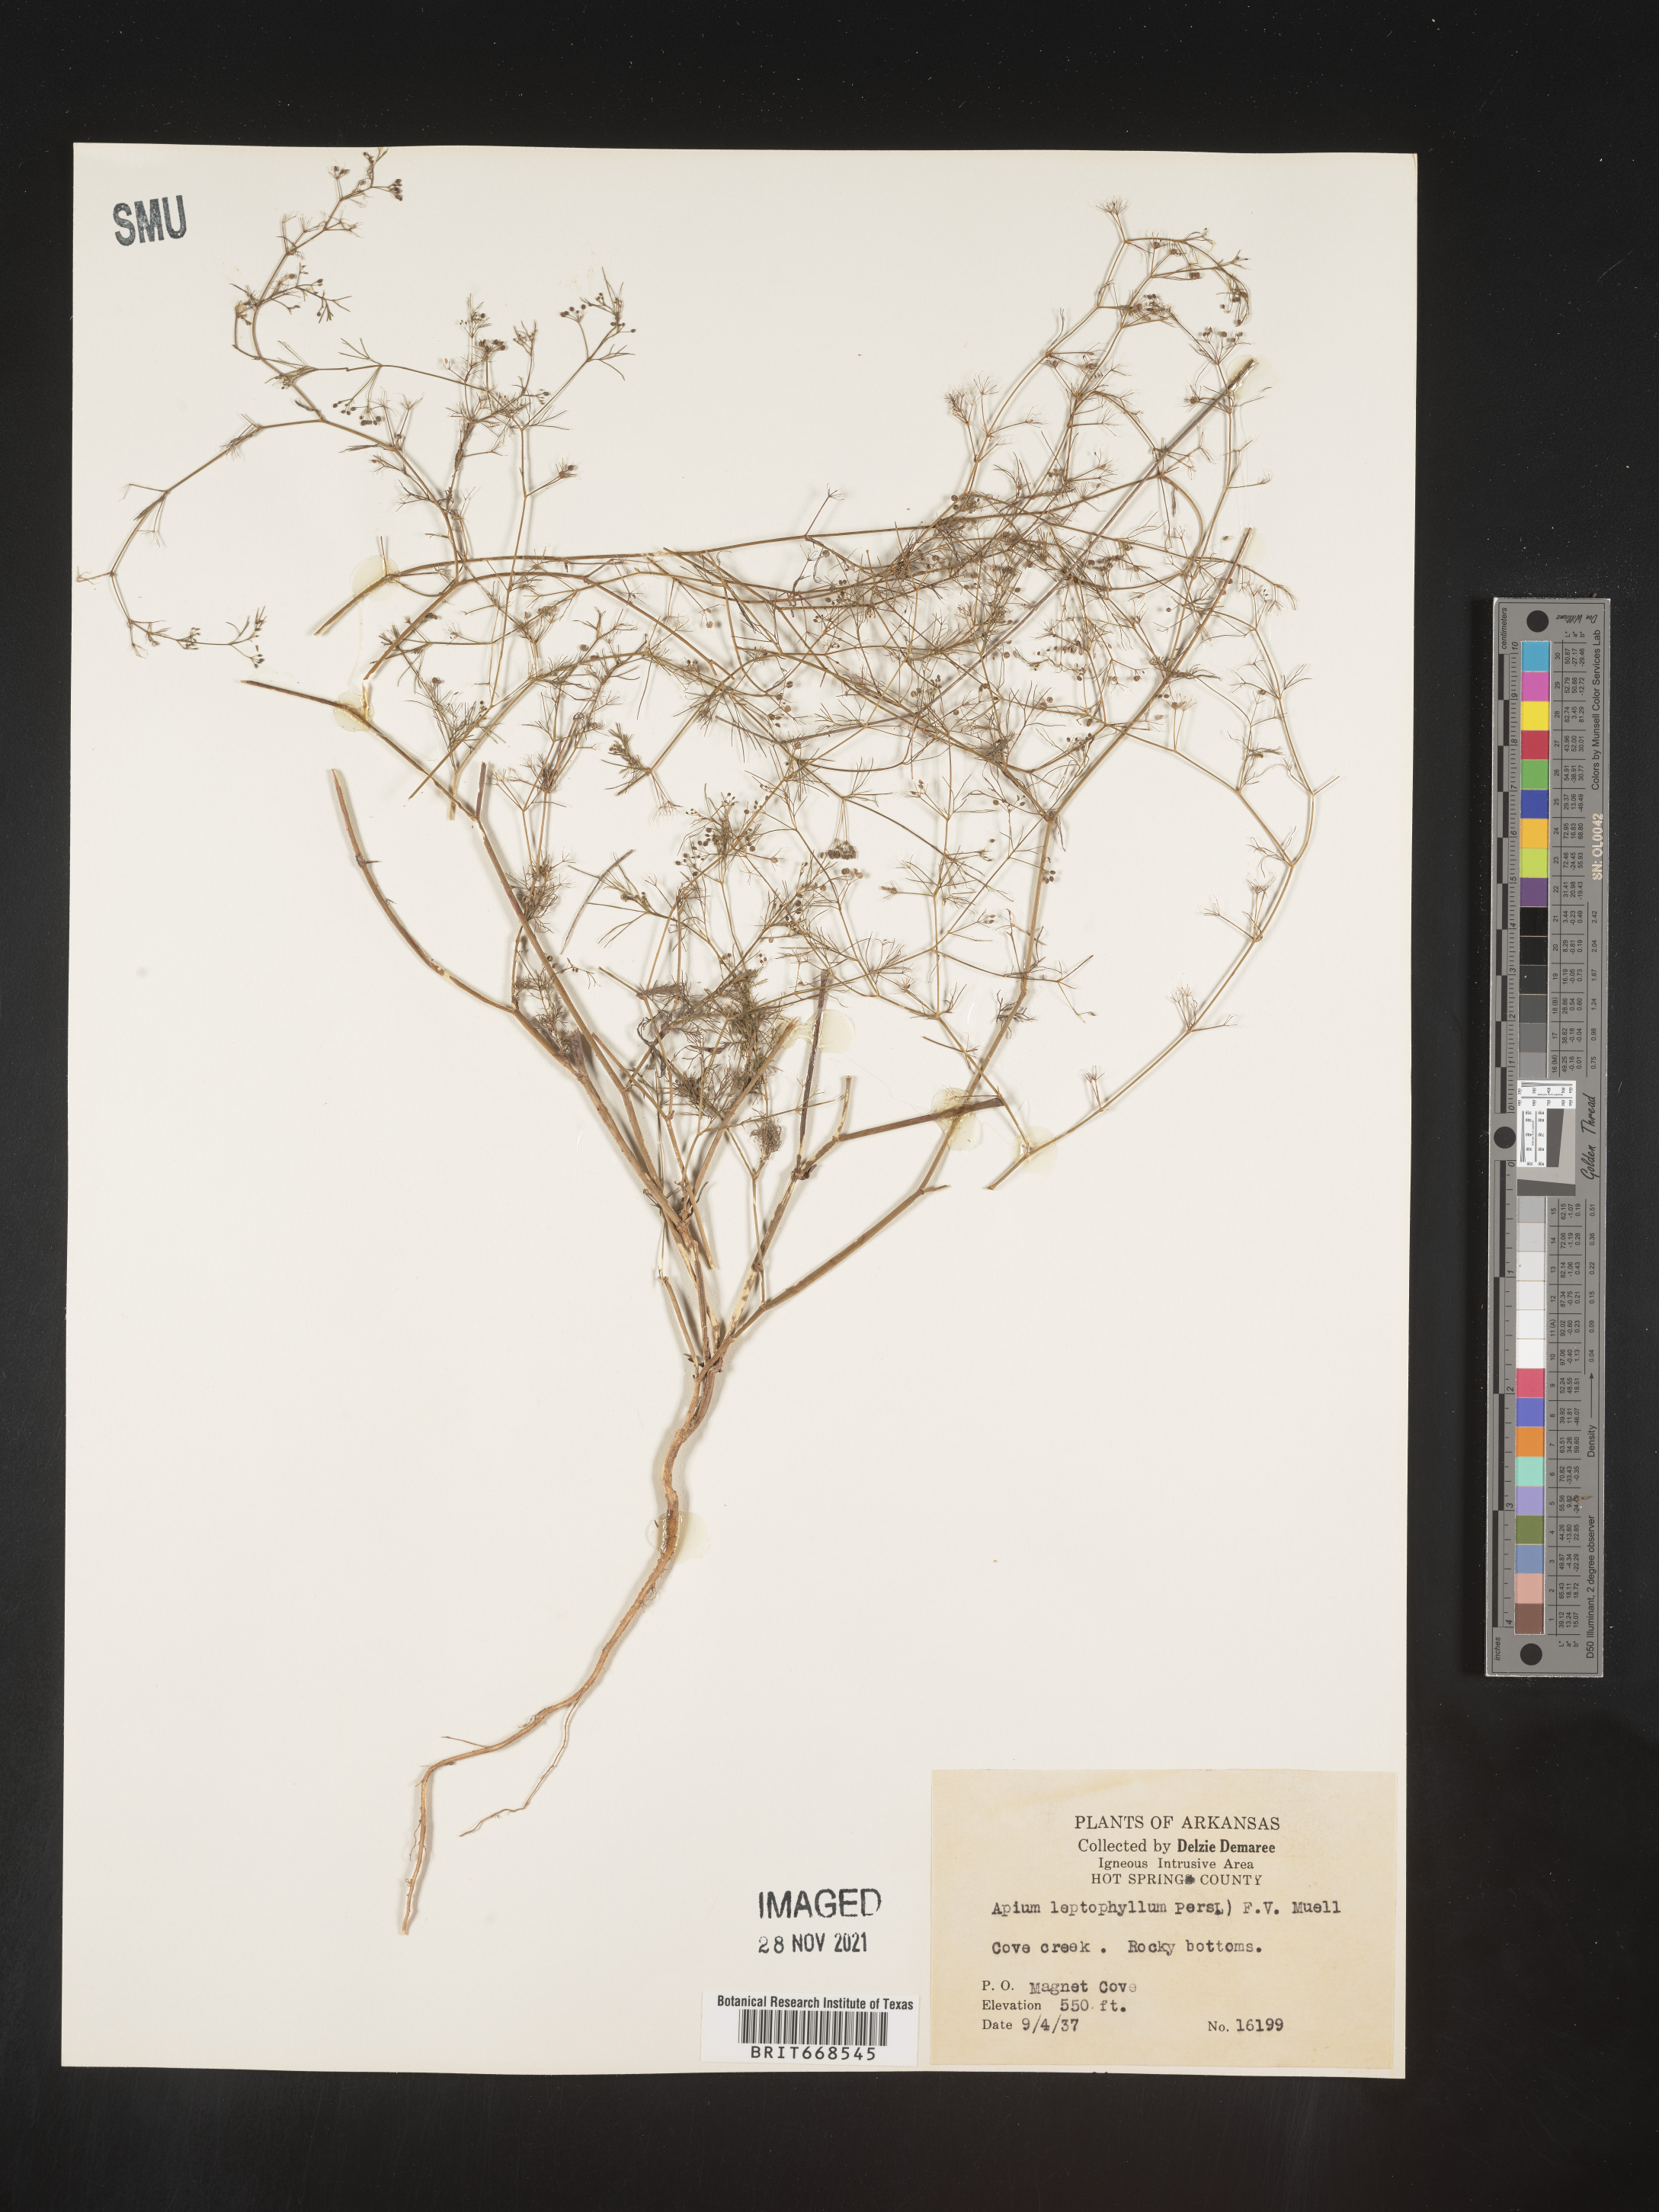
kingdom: Plantae
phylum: Tracheophyta
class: Magnoliopsida
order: Apiales
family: Apiaceae
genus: Cyclospermum
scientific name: Cyclospermum leptophyllum
